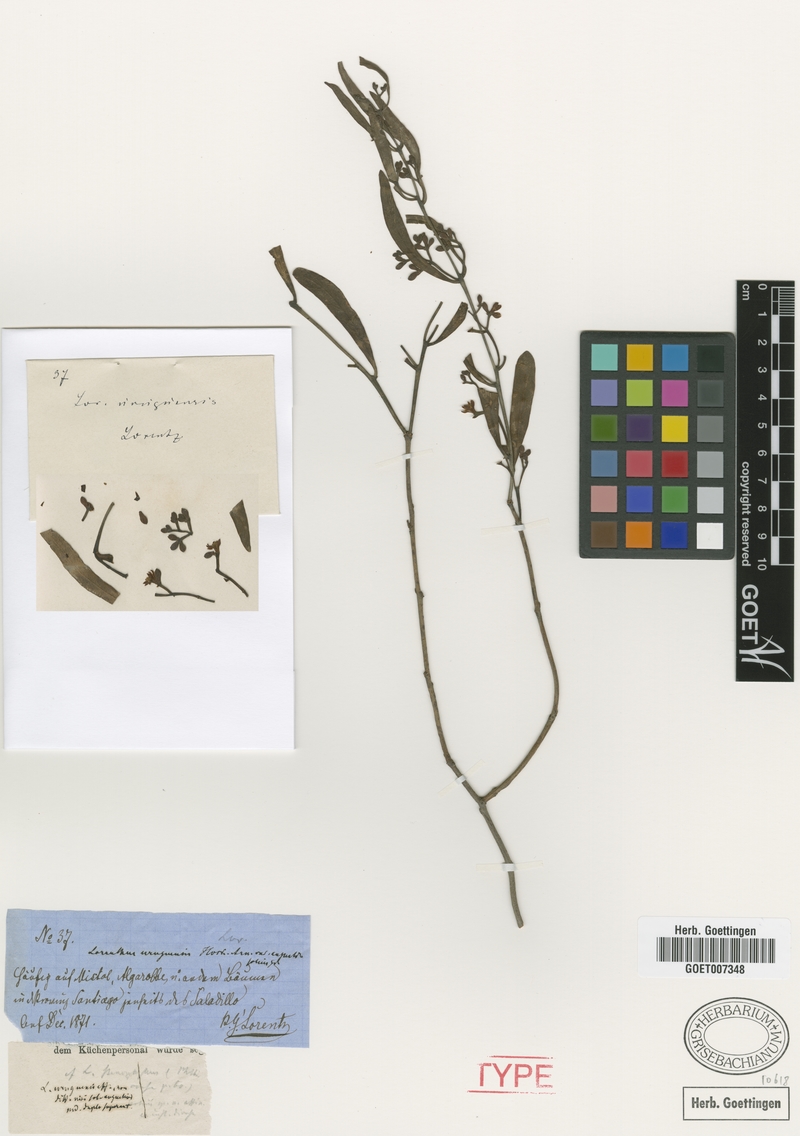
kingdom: Plantae
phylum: Tracheophyta
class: Magnoliopsida
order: Santalales
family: Loranthaceae
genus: Struthanthus
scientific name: Struthanthus angustifolius
